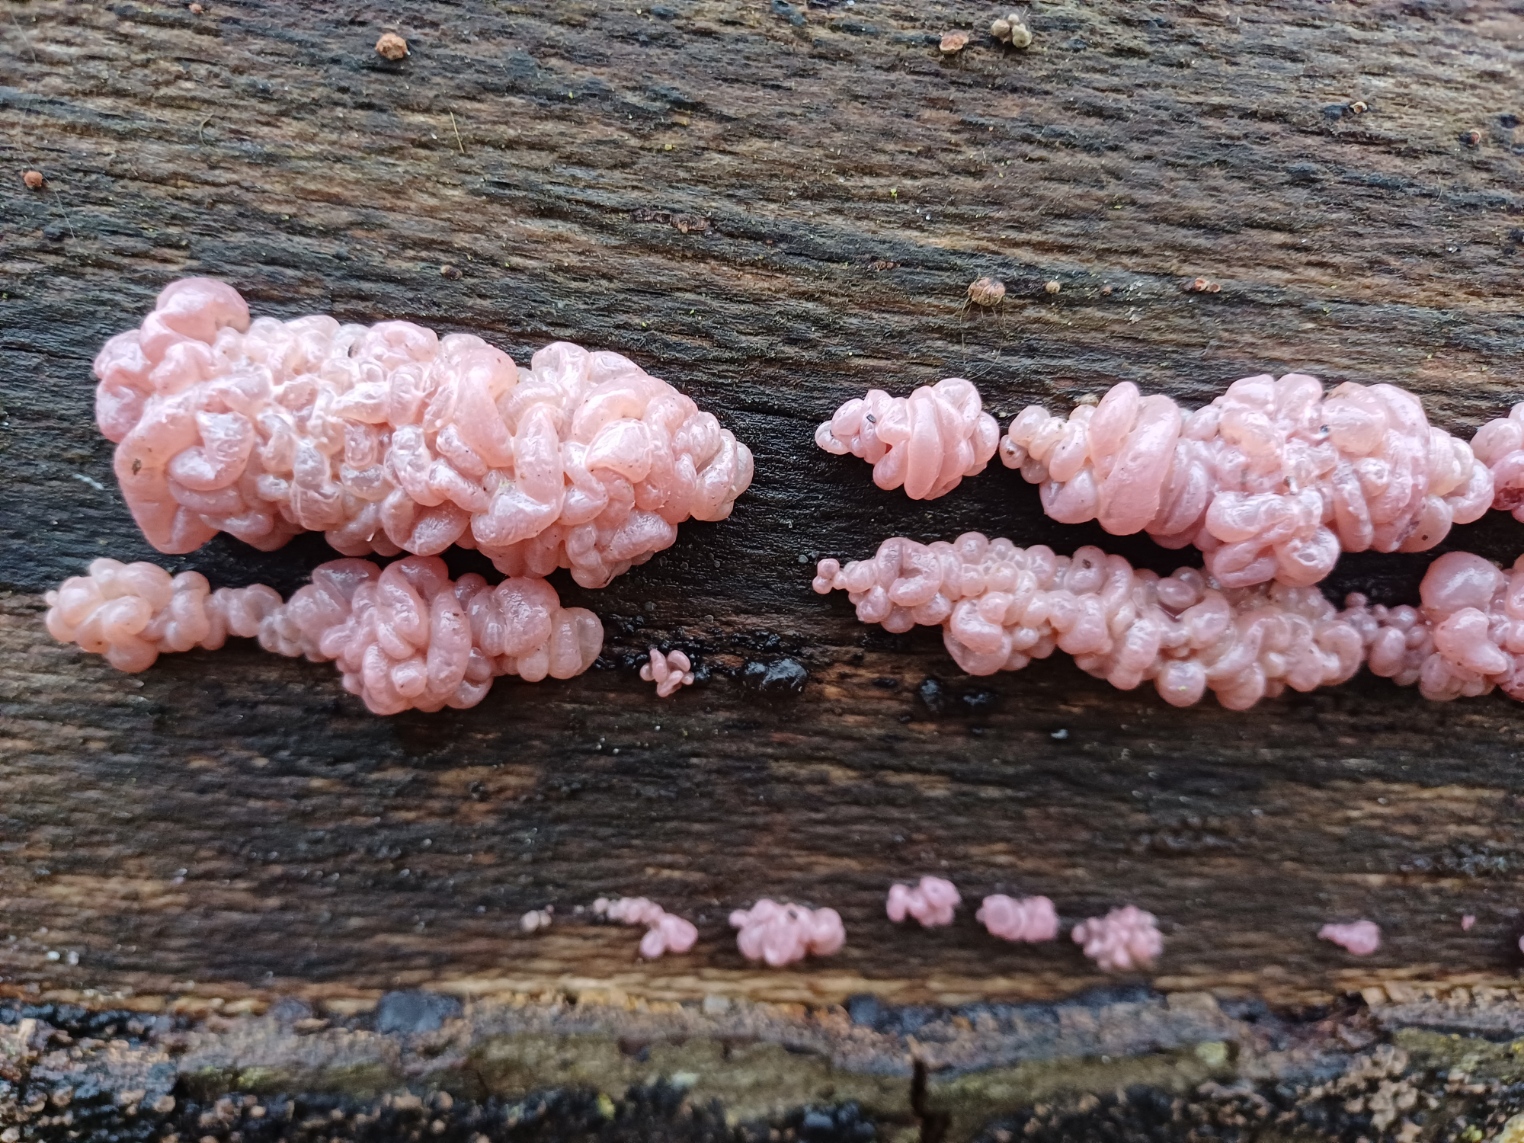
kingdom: Fungi
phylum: Ascomycota
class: Leotiomycetes
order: Helotiales
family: Gelatinodiscaceae
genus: Ascocoryne
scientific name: Ascocoryne sarcoides
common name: rødlilla sejskive
